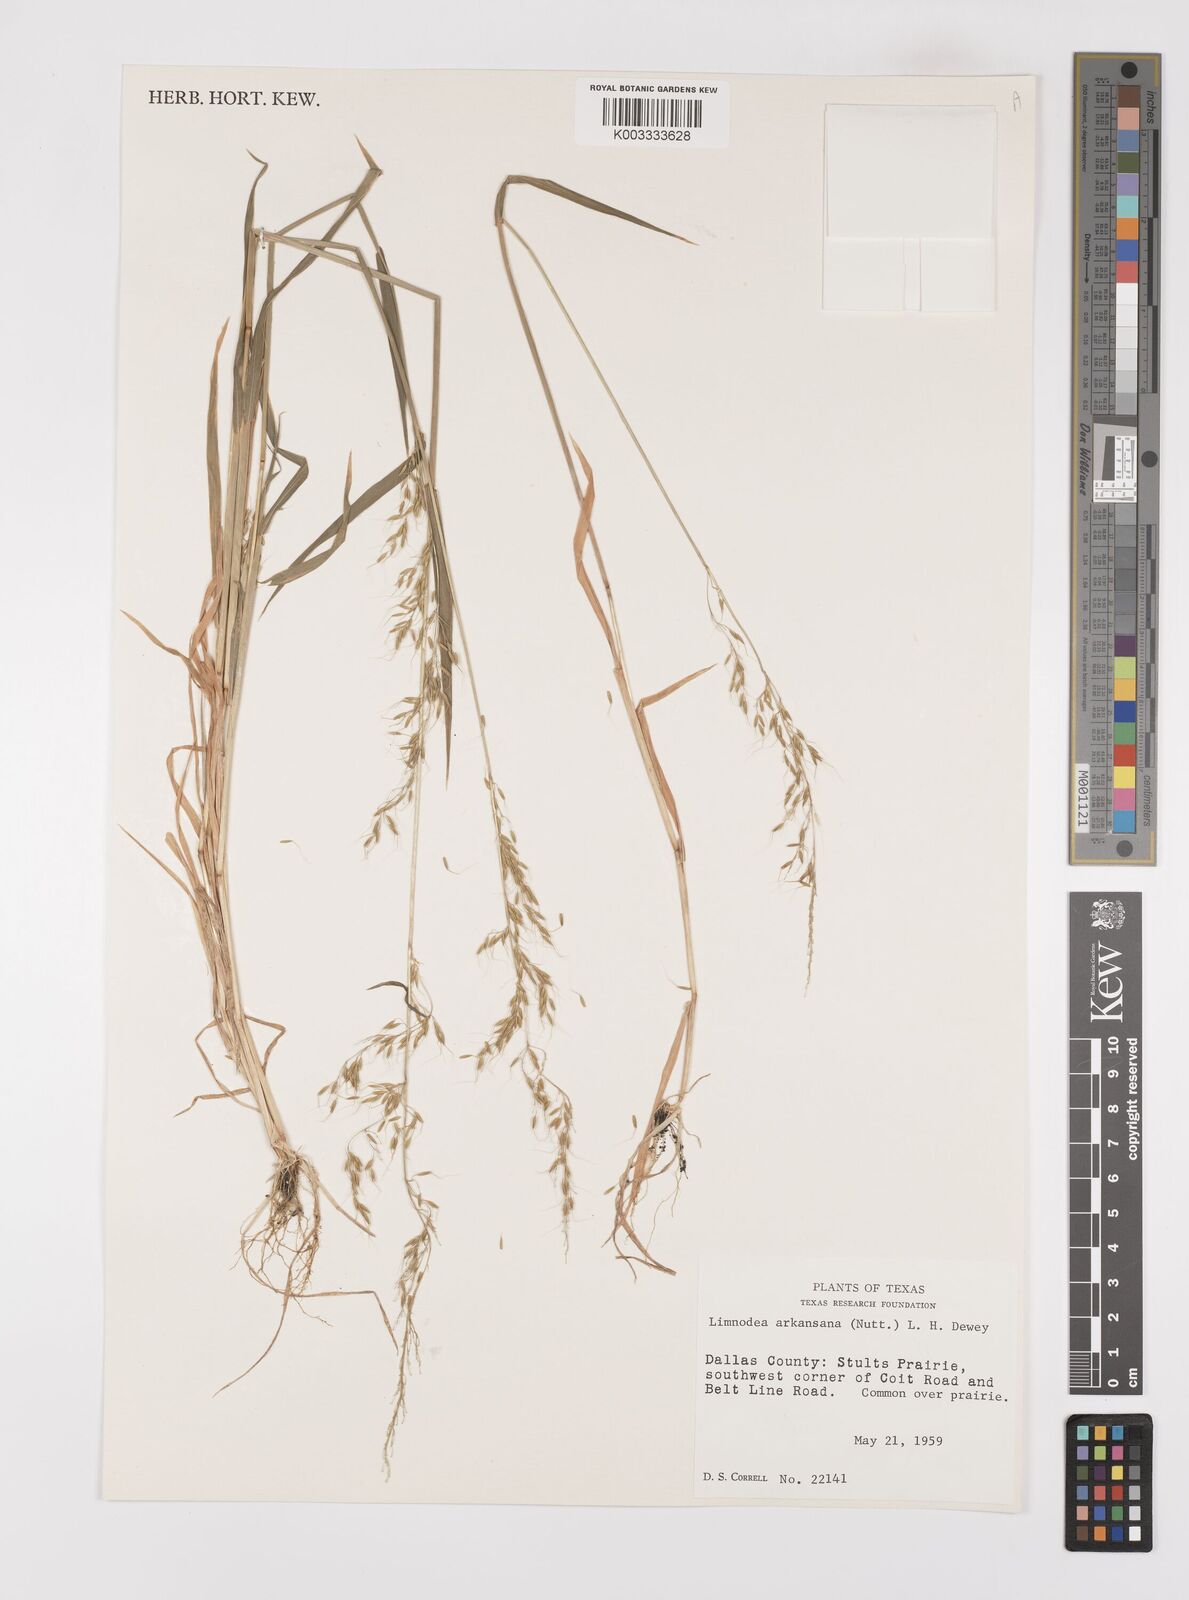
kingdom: Plantae
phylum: Tracheophyta
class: Liliopsida
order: Poales
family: Poaceae
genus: Limnodea
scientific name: Limnodea arkansana
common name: Ozark-grass
